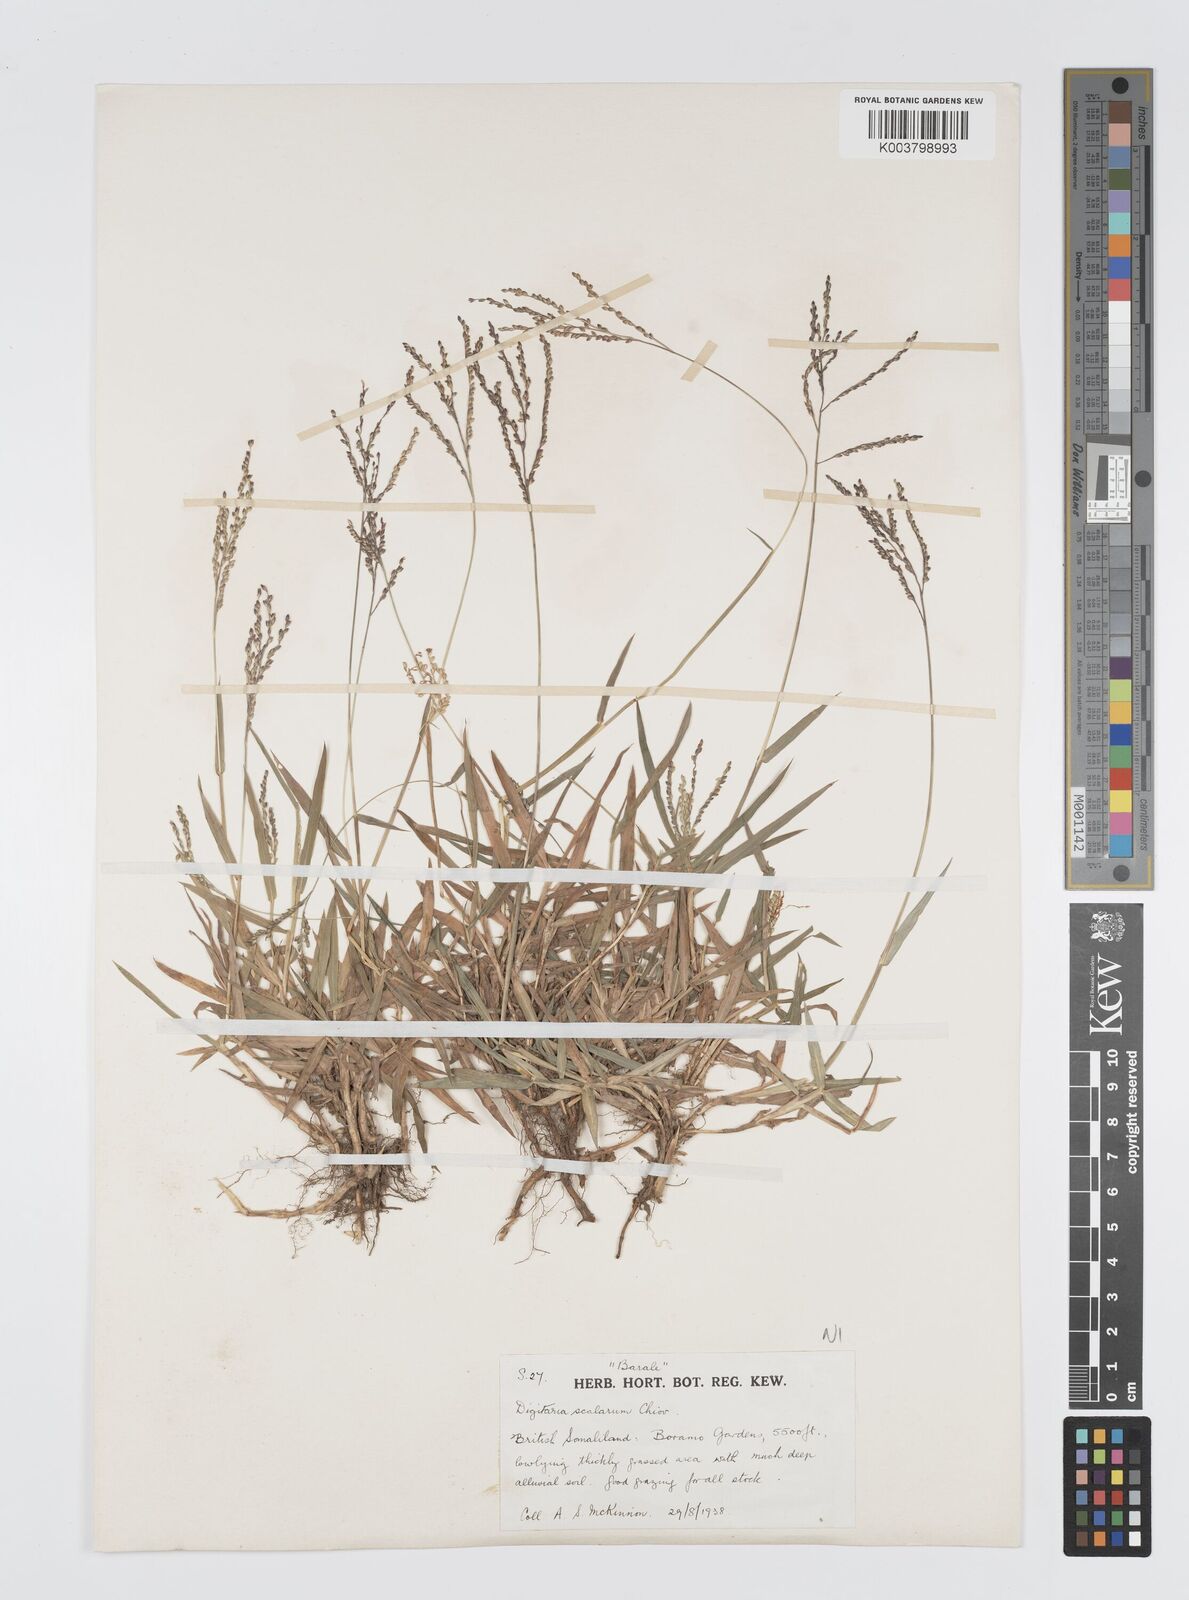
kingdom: Plantae
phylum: Tracheophyta
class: Liliopsida
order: Poales
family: Poaceae
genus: Digitaria
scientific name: Digitaria abyssinica
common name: African couchgrass
